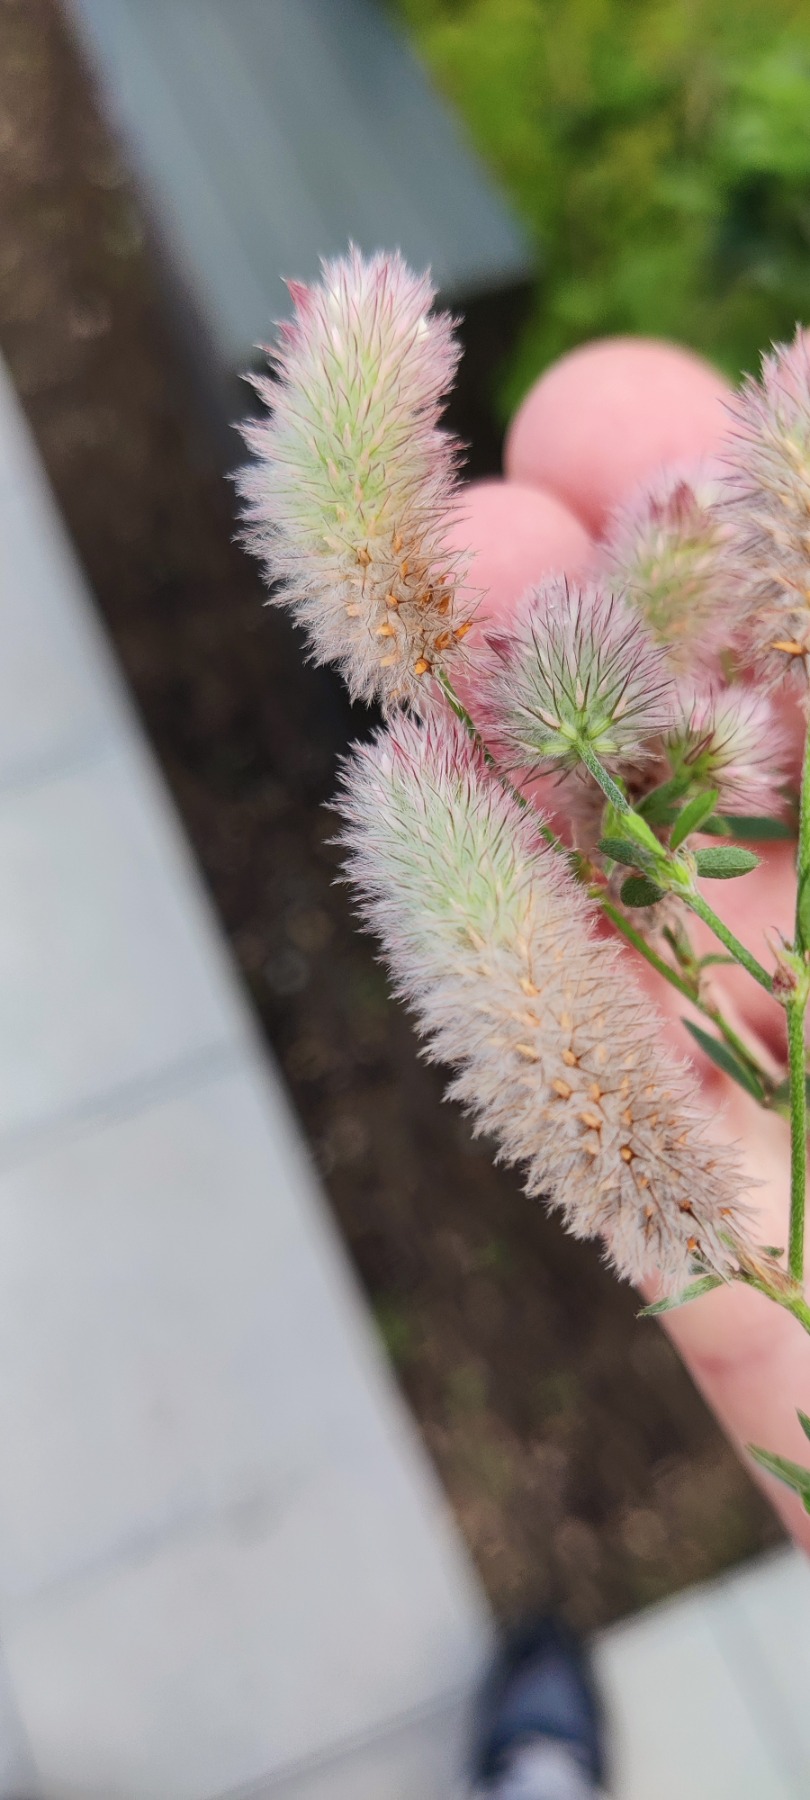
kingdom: Plantae
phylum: Tracheophyta
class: Magnoliopsida
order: Fabales
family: Fabaceae
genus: Trifolium
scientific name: Trifolium arvense
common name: Hare-kløver
